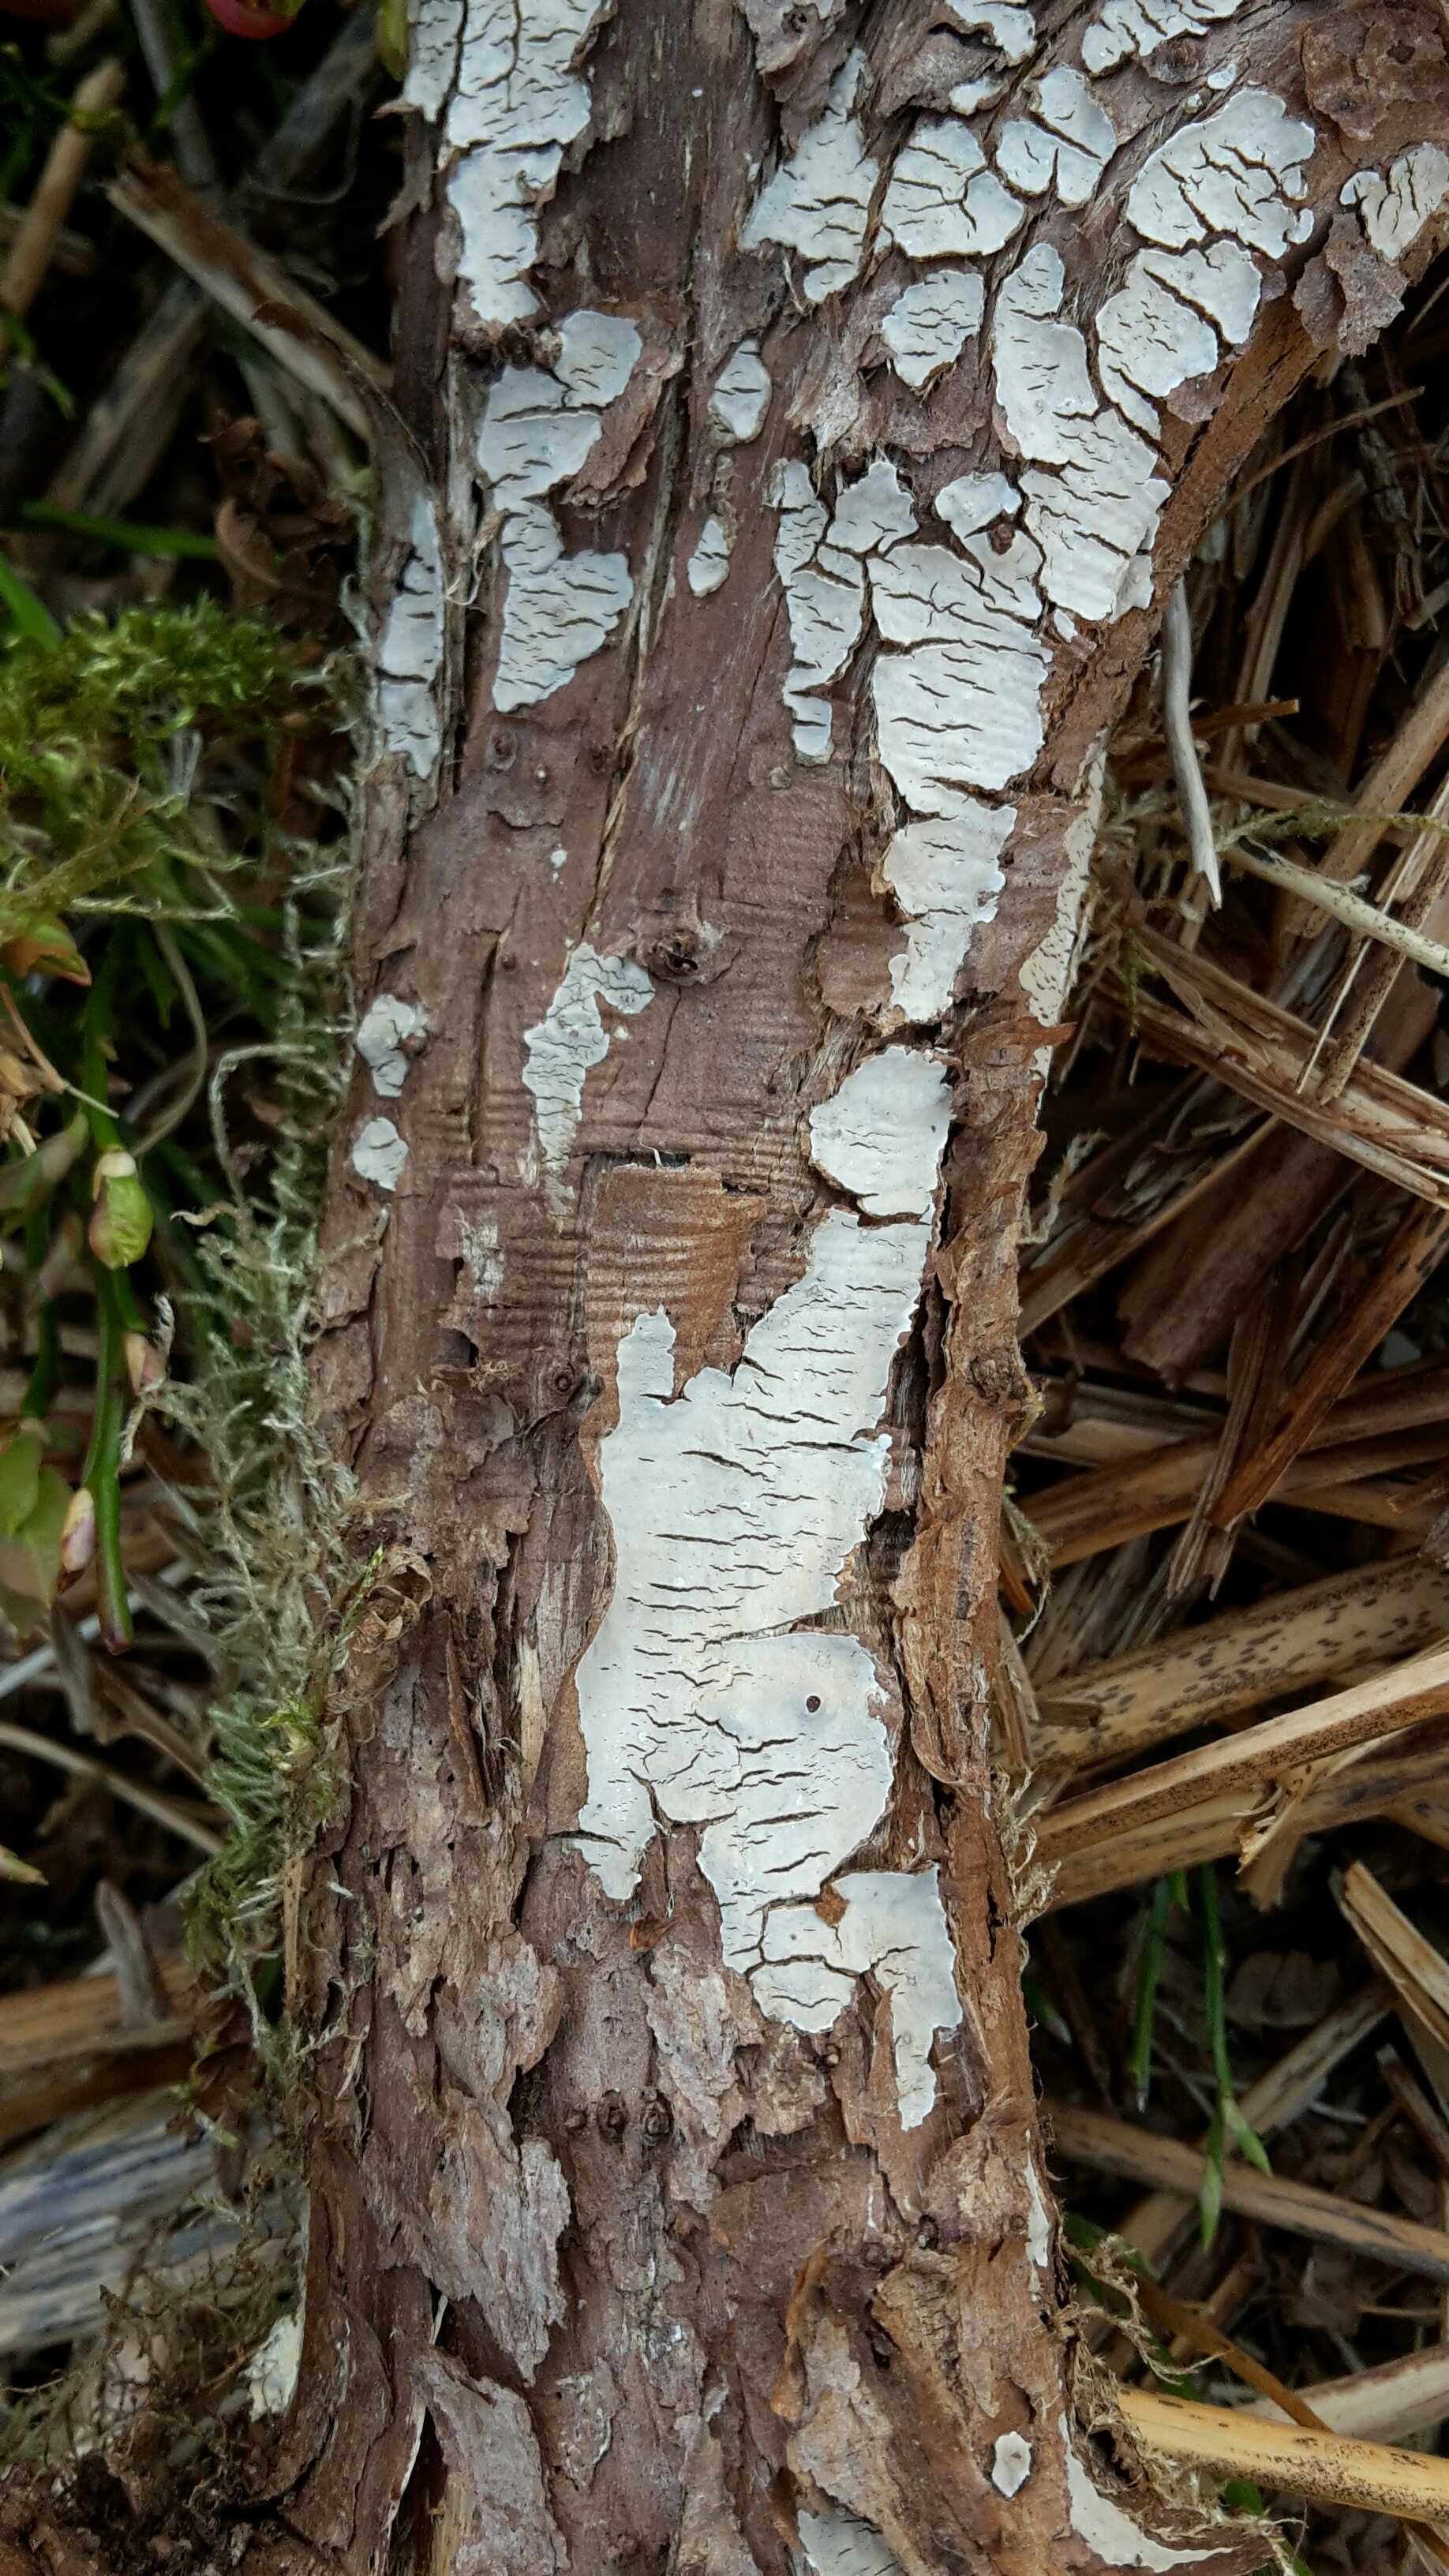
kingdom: Fungi
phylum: Basidiomycota
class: Agaricomycetes
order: Russulales
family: Echinodontiaceae
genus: Amylostereum
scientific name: Amylostereum laevigatum
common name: ene-lædersvamp
